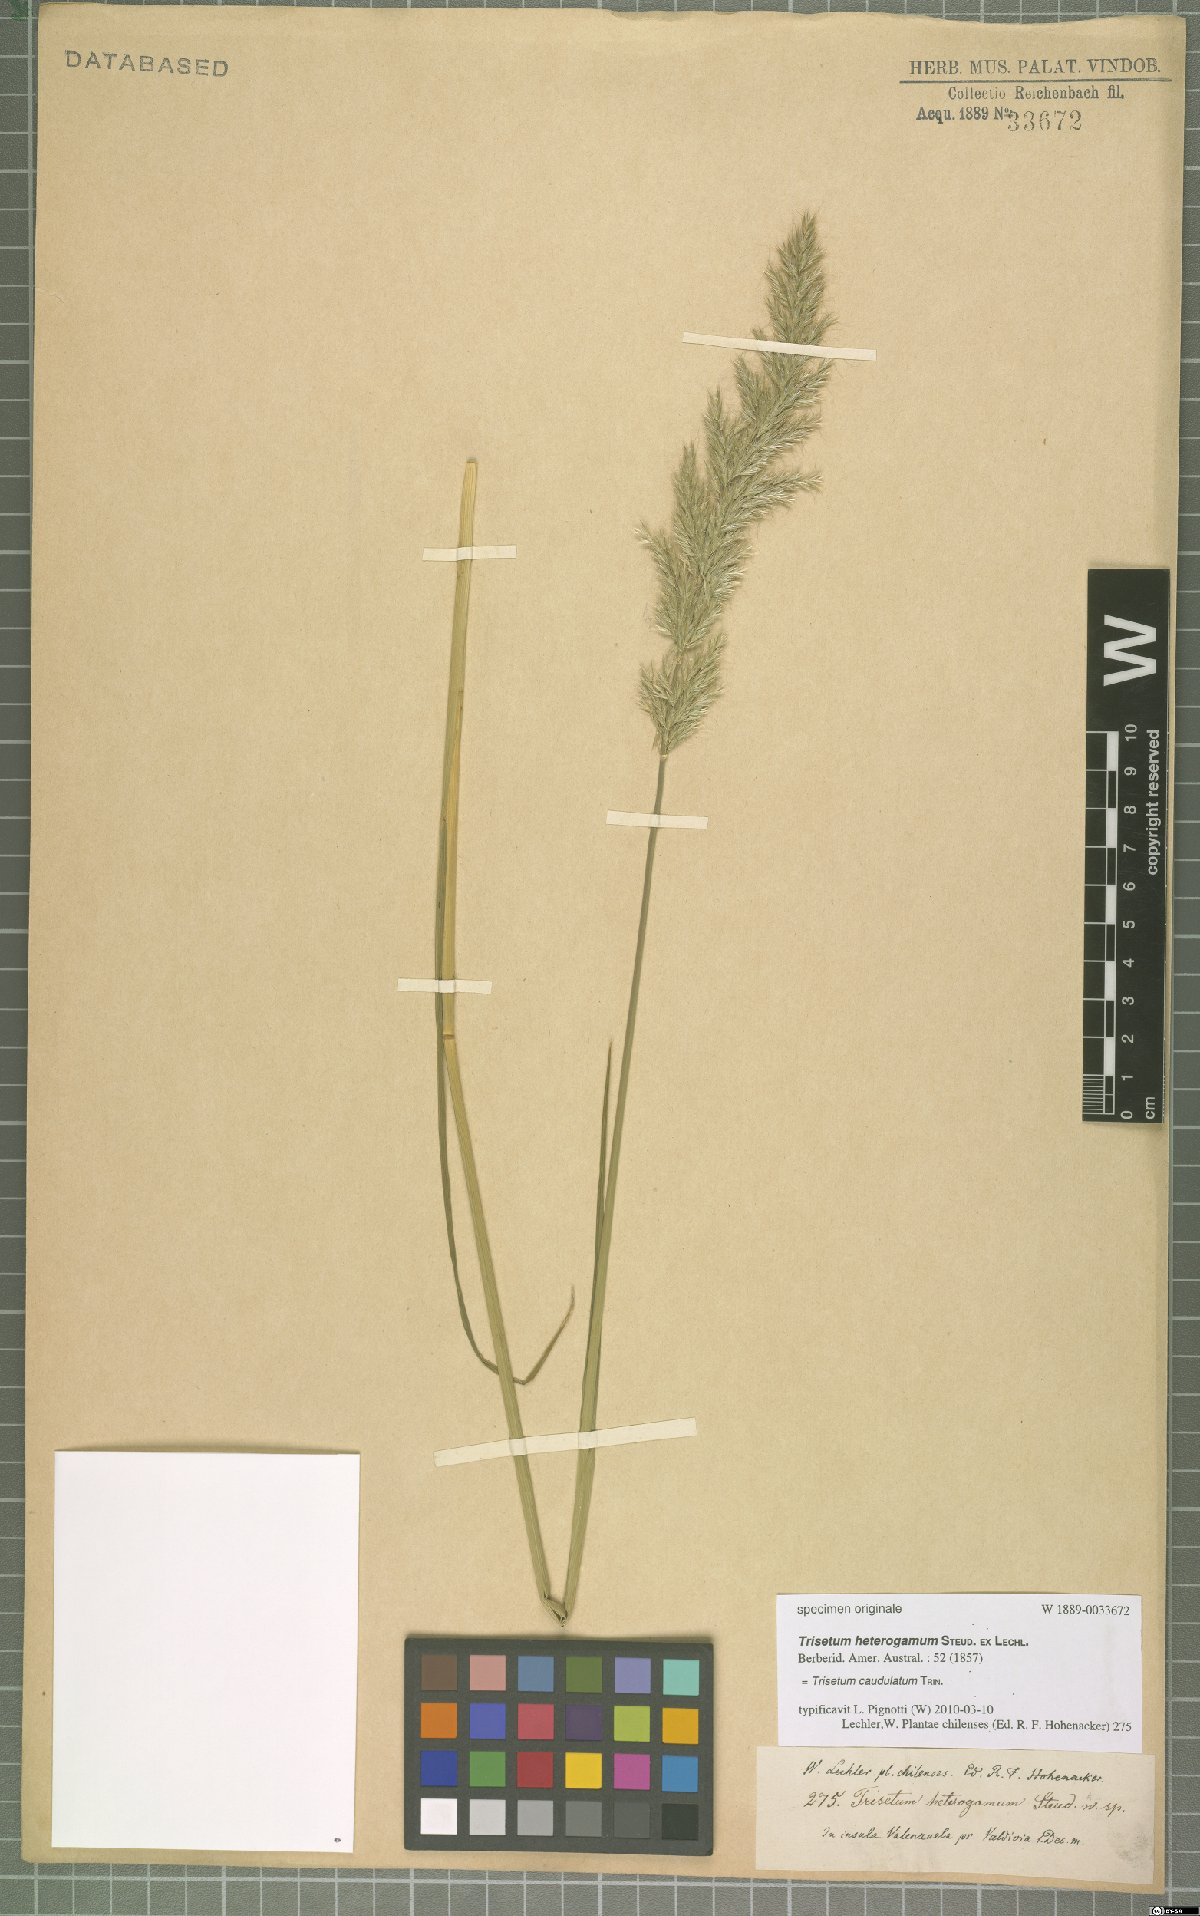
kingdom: Plantae
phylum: Tracheophyta
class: Liliopsida
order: Poales
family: Poaceae
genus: Trisetum
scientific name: Trisetum caudulatum
